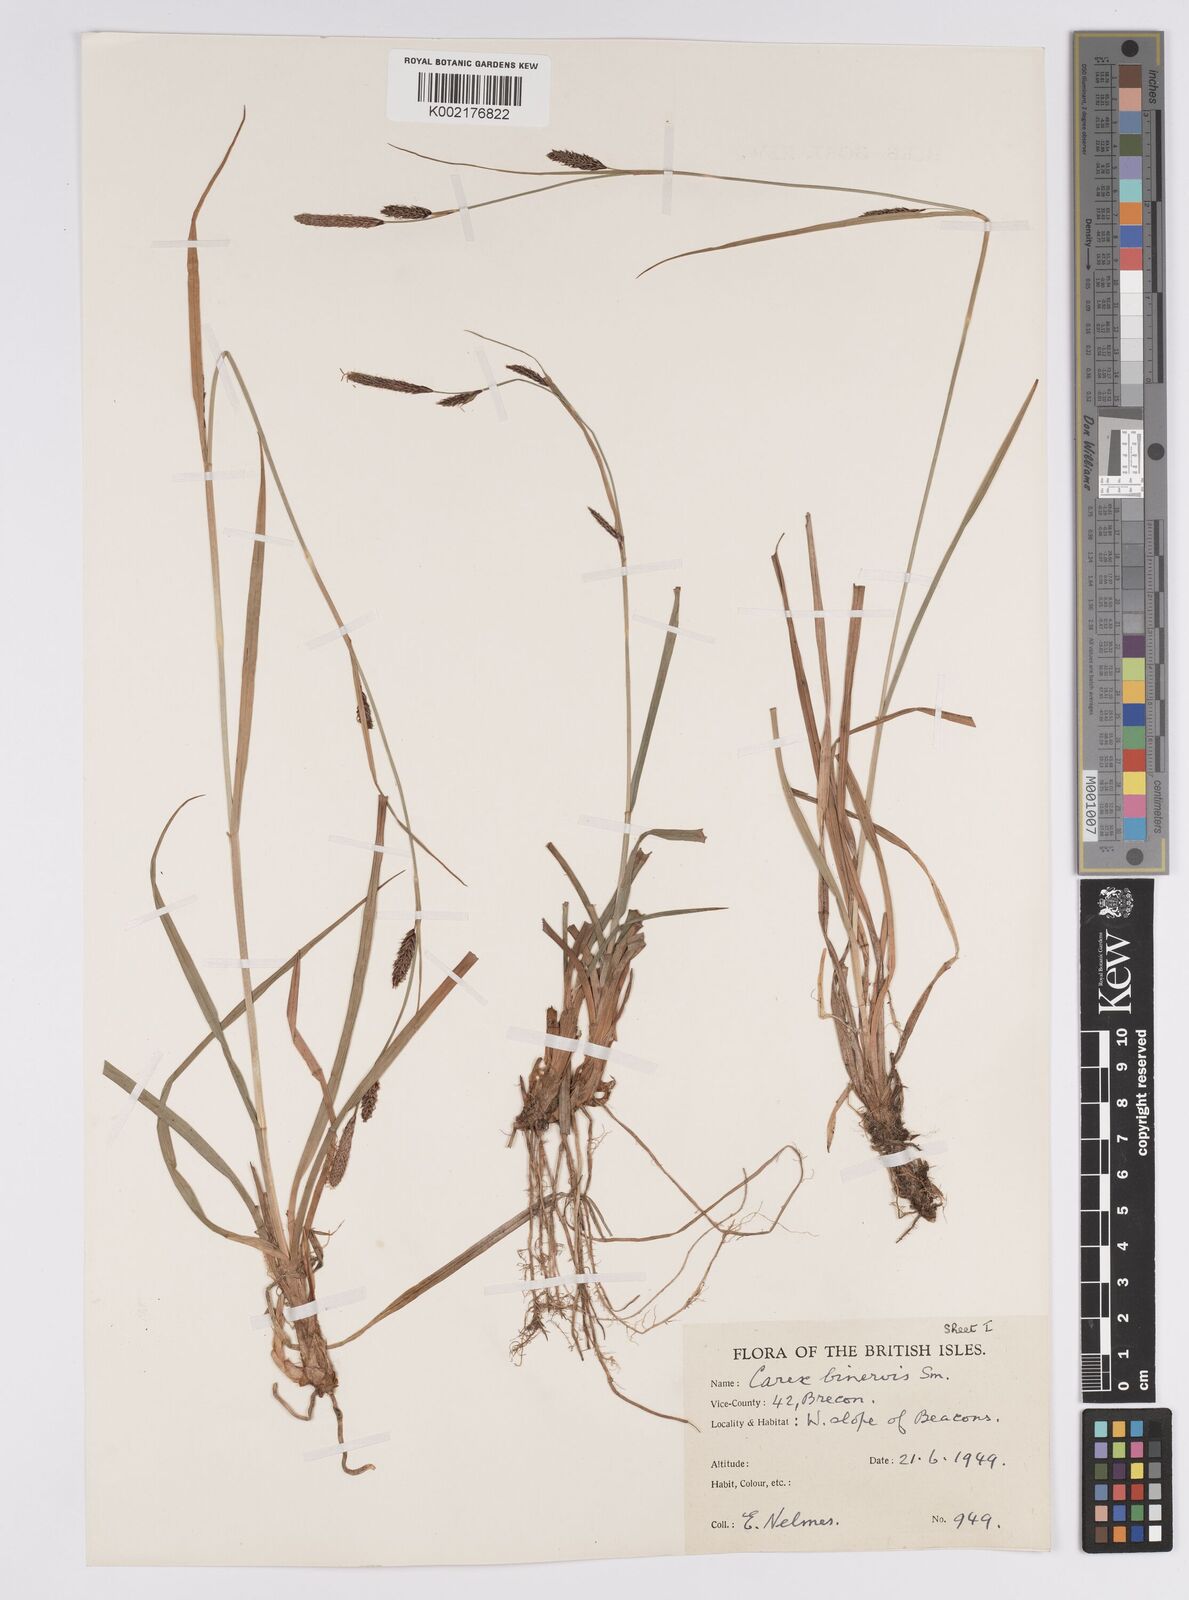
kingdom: Plantae
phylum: Tracheophyta
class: Liliopsida
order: Poales
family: Cyperaceae
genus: Carex
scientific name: Carex binervis
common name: Green-ribbed sedge
